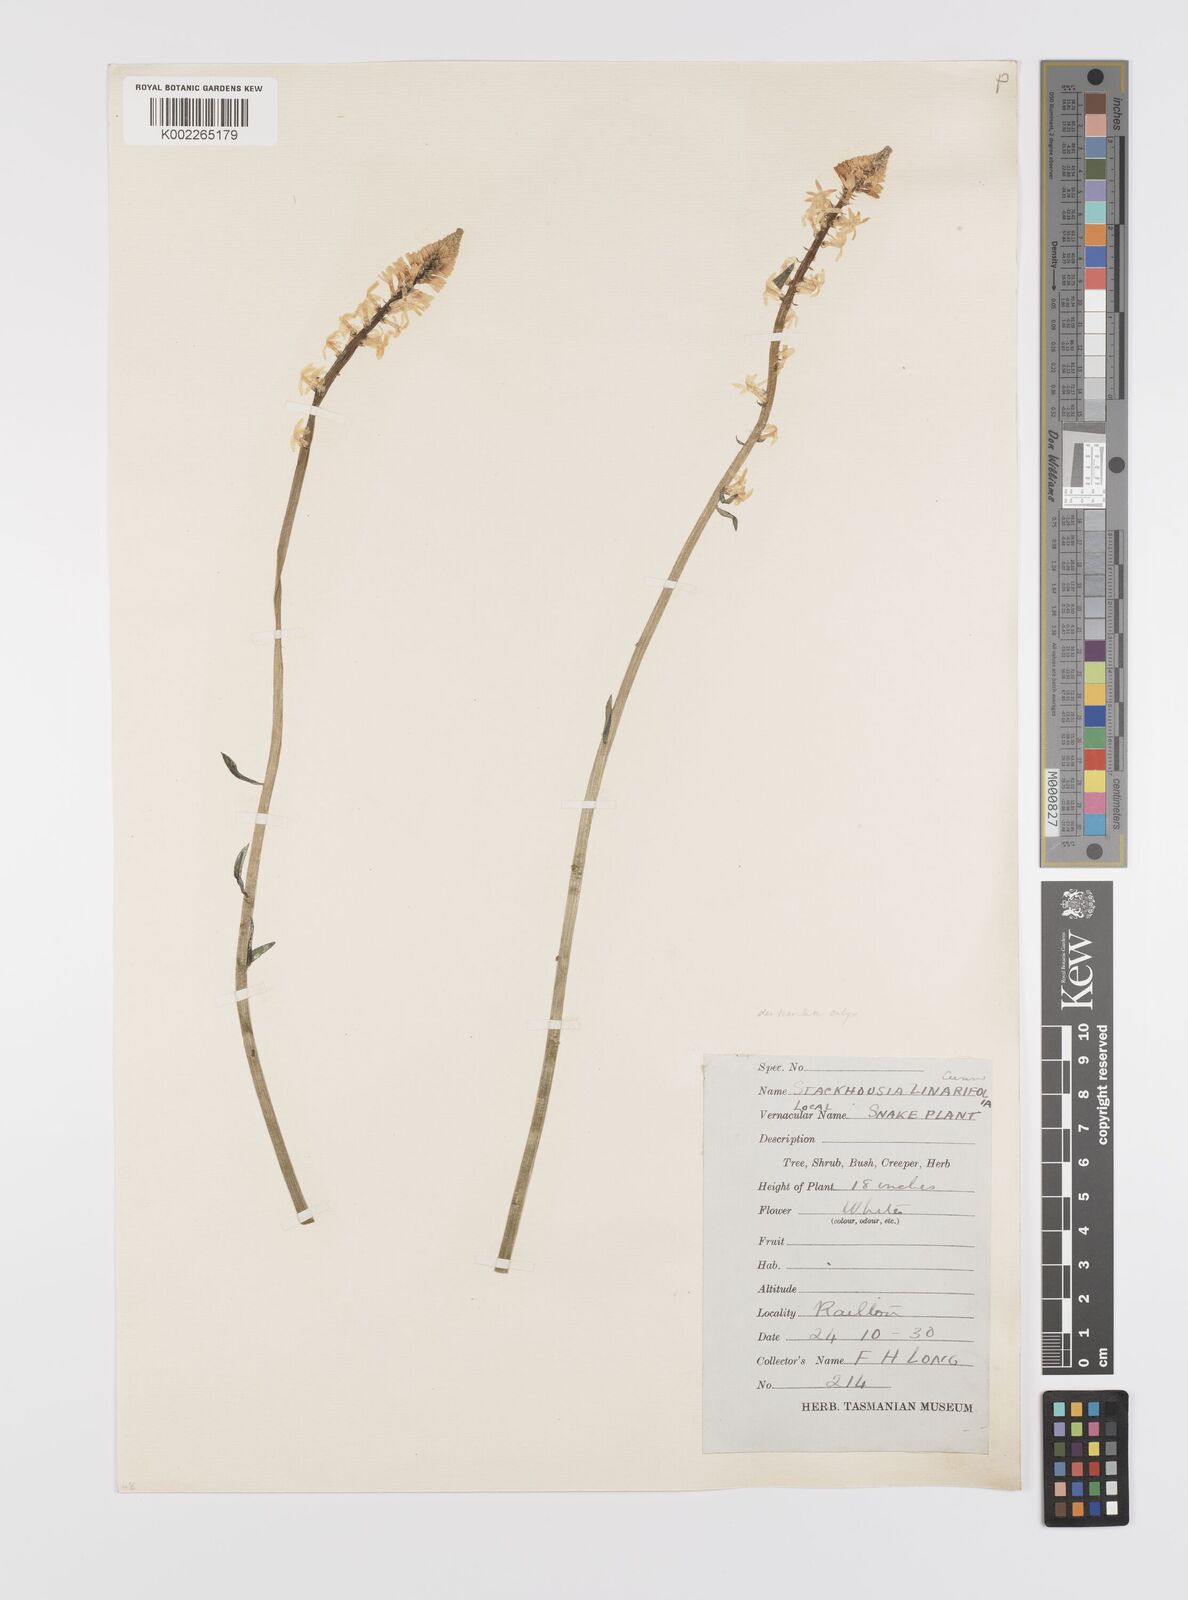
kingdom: Plantae
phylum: Tracheophyta
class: Magnoliopsida
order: Celastrales
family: Celastraceae
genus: Stackhousia
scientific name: Stackhousia monogyna
